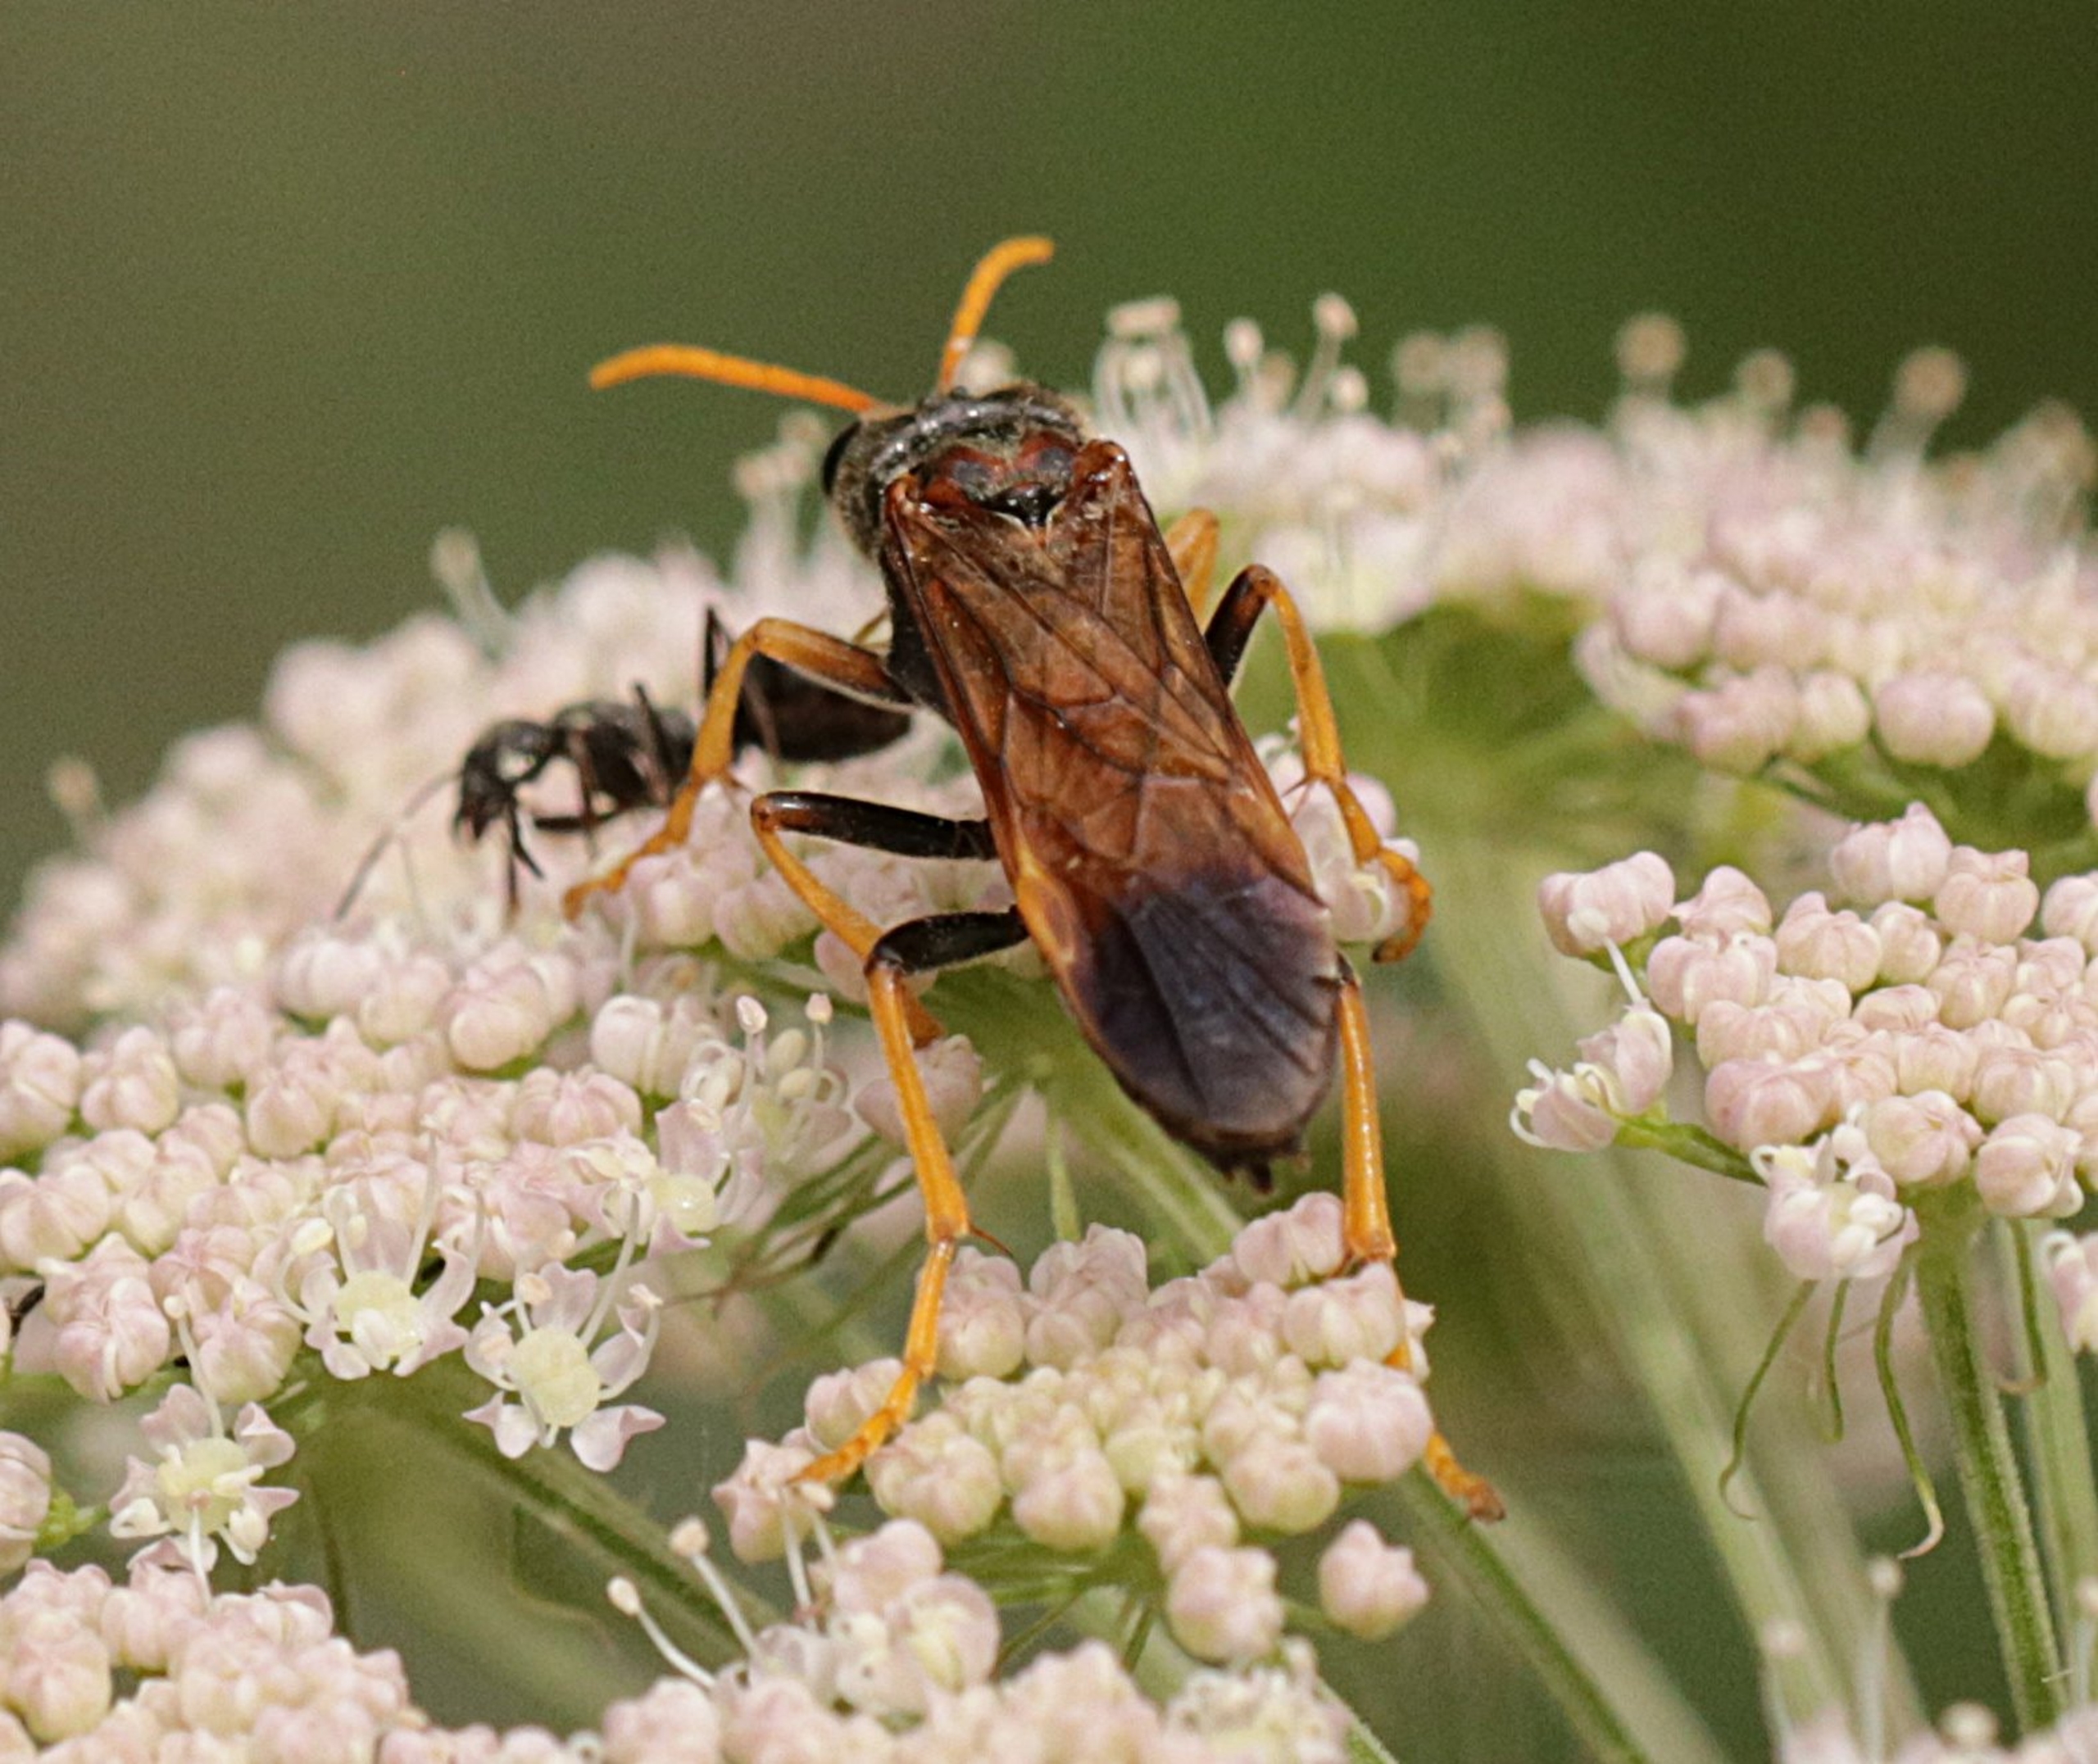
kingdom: Animalia
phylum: Arthropoda
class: Insecta
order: Hymenoptera
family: Tenthredinidae
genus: Tenthredo
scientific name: Tenthredo campestris
